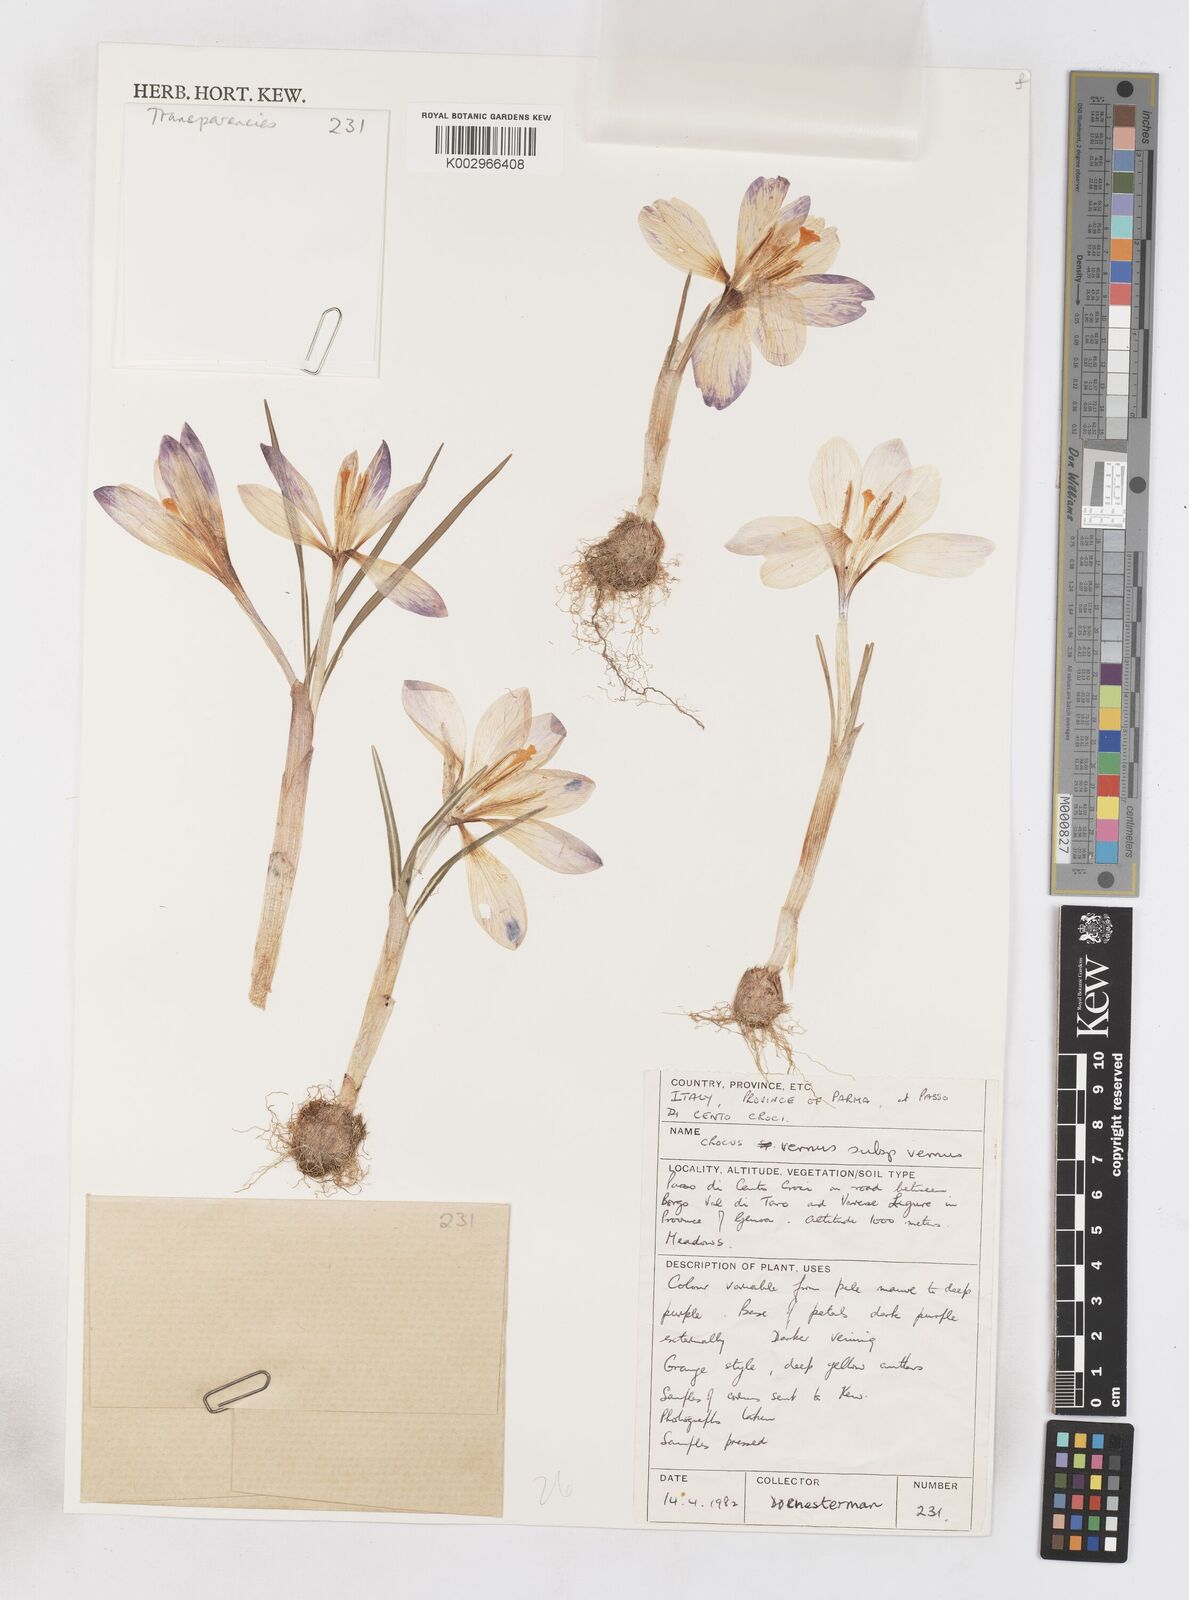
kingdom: Plantae
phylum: Tracheophyta
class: Liliopsida
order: Asparagales
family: Iridaceae
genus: Crocus
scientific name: Crocus vernus
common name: Spring crocus
